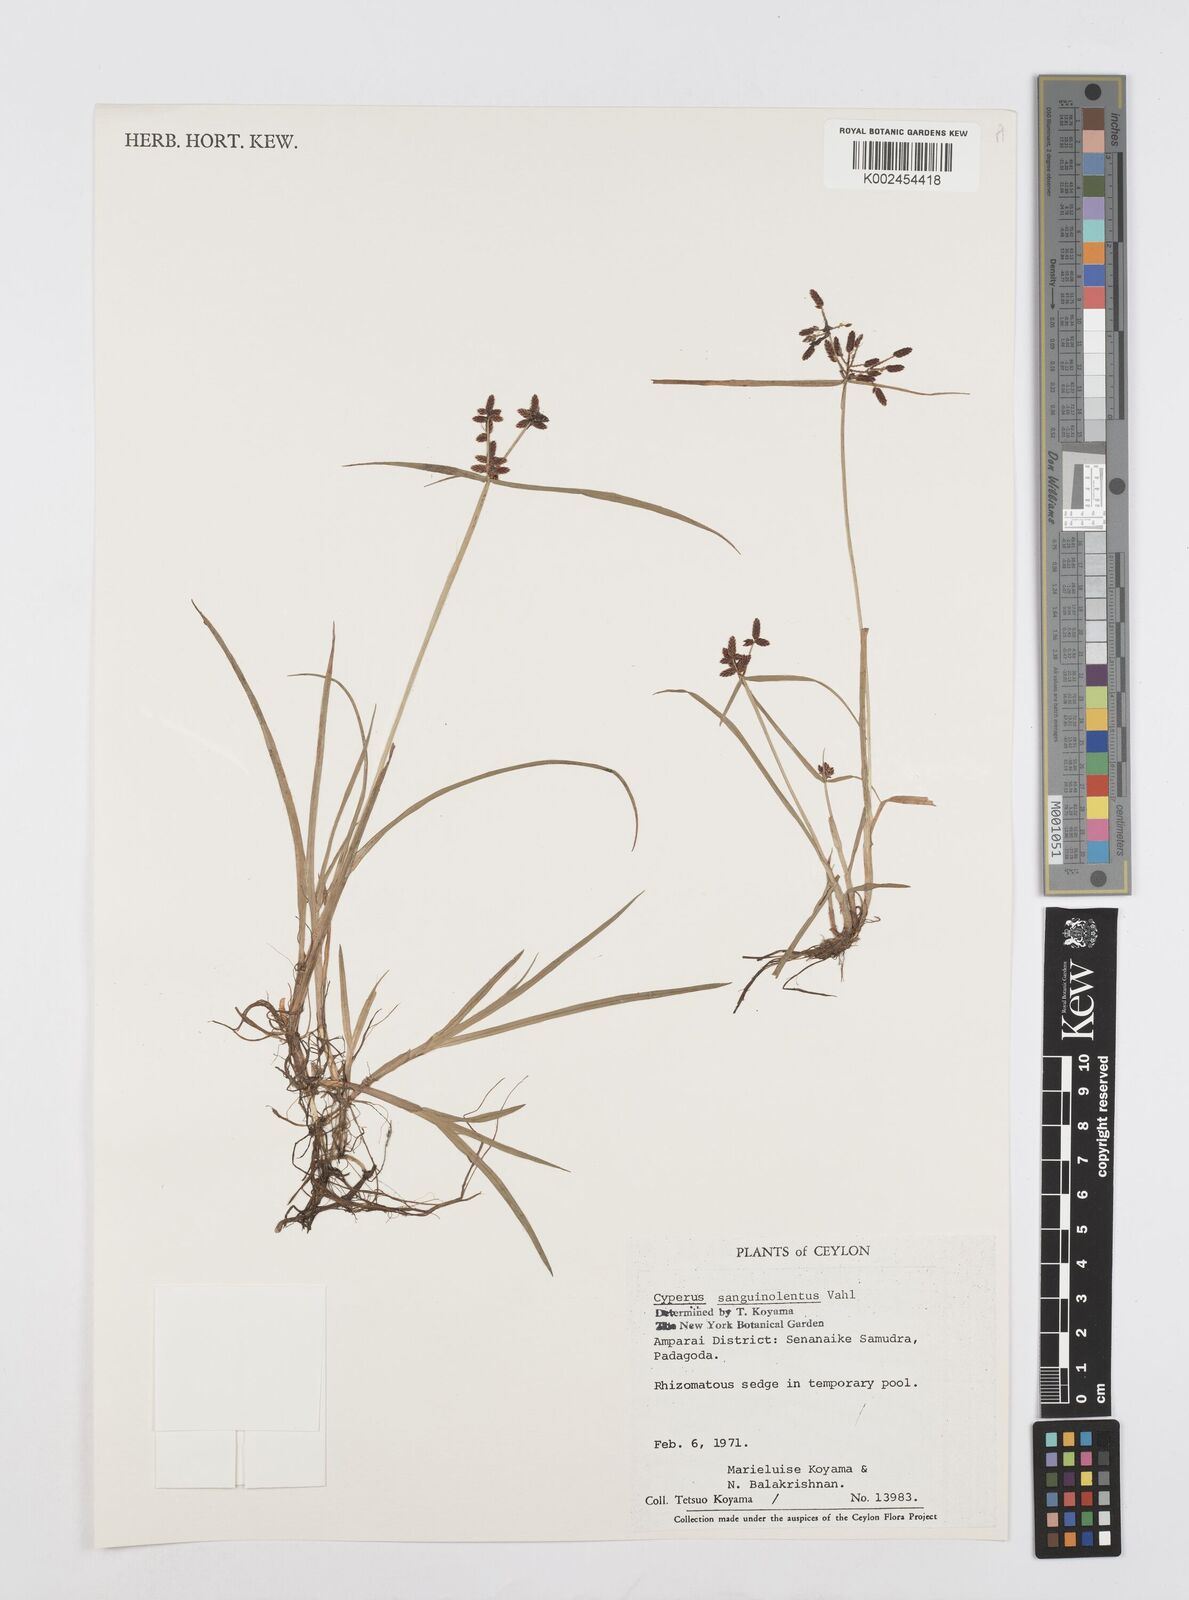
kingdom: Plantae
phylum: Tracheophyta
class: Liliopsida
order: Poales
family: Cyperaceae
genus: Cyperus
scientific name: Cyperus sanguinolentus
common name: Purpleglume flatsedge
